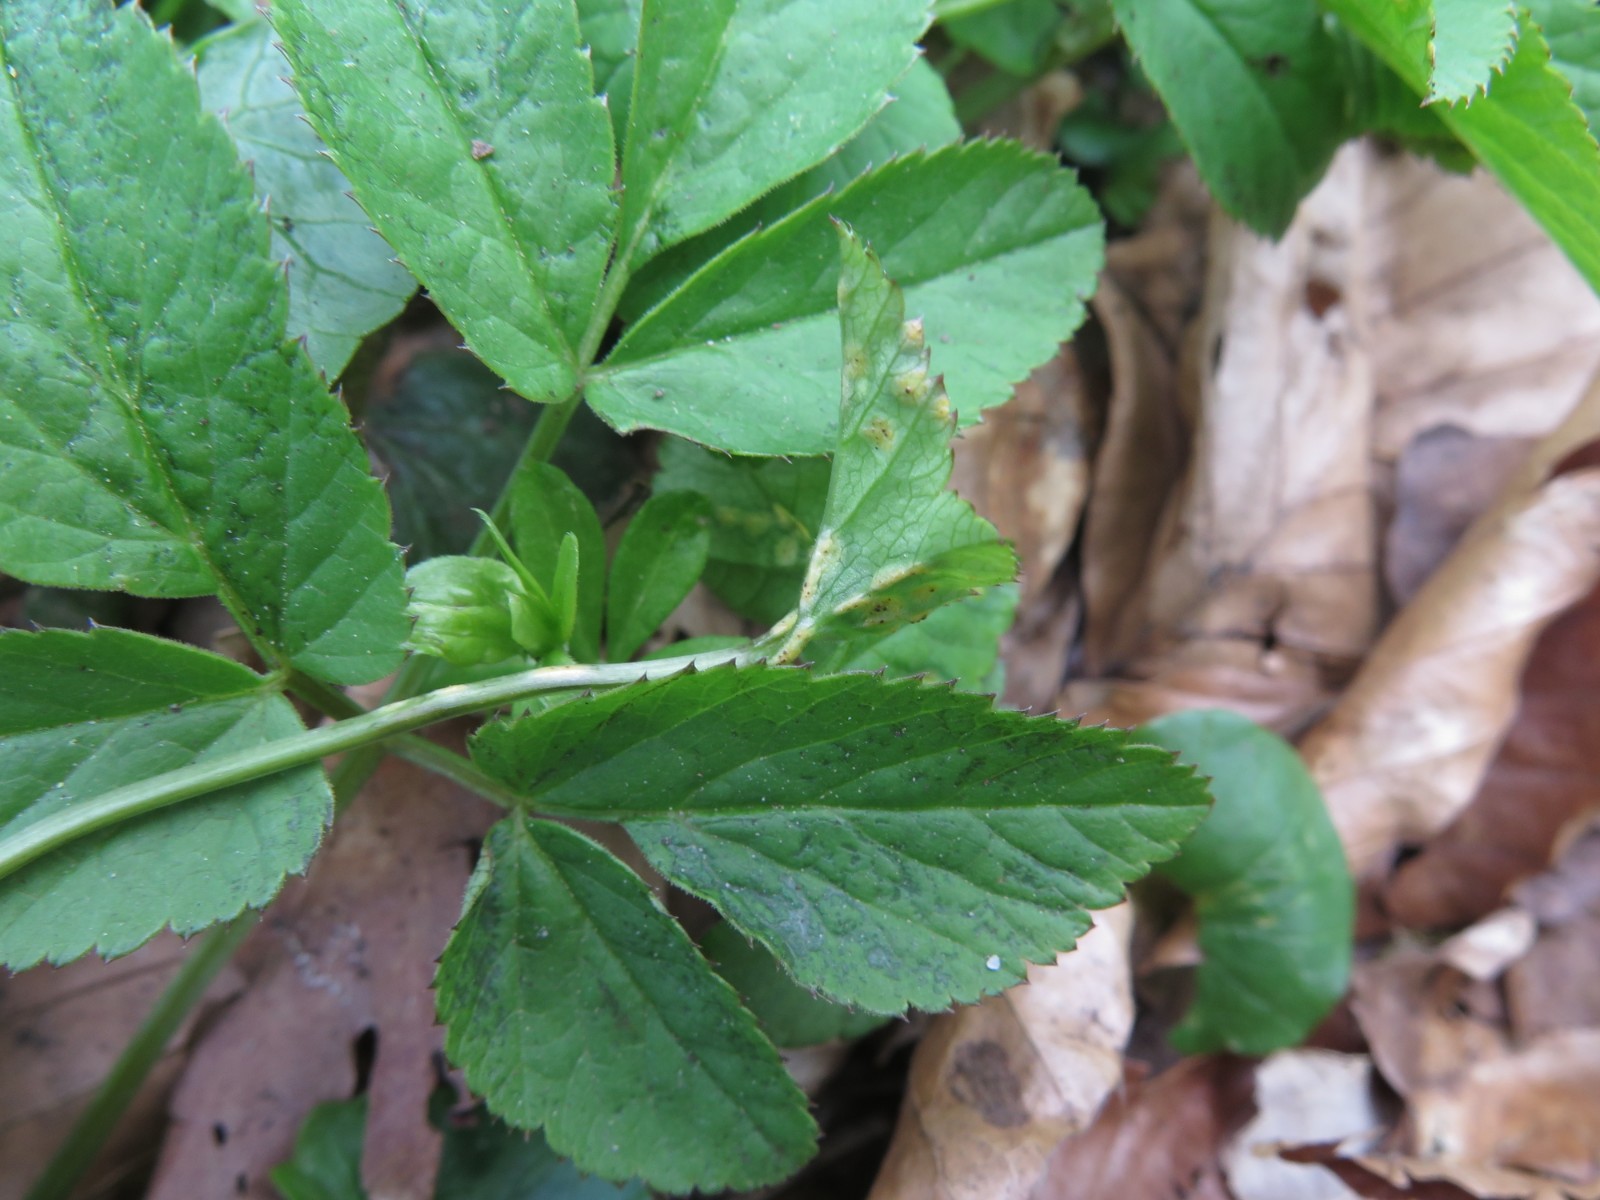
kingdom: Fungi
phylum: Basidiomycota
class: Pucciniomycetes
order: Pucciniales
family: Pucciniaceae
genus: Puccinia
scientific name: Puccinia
